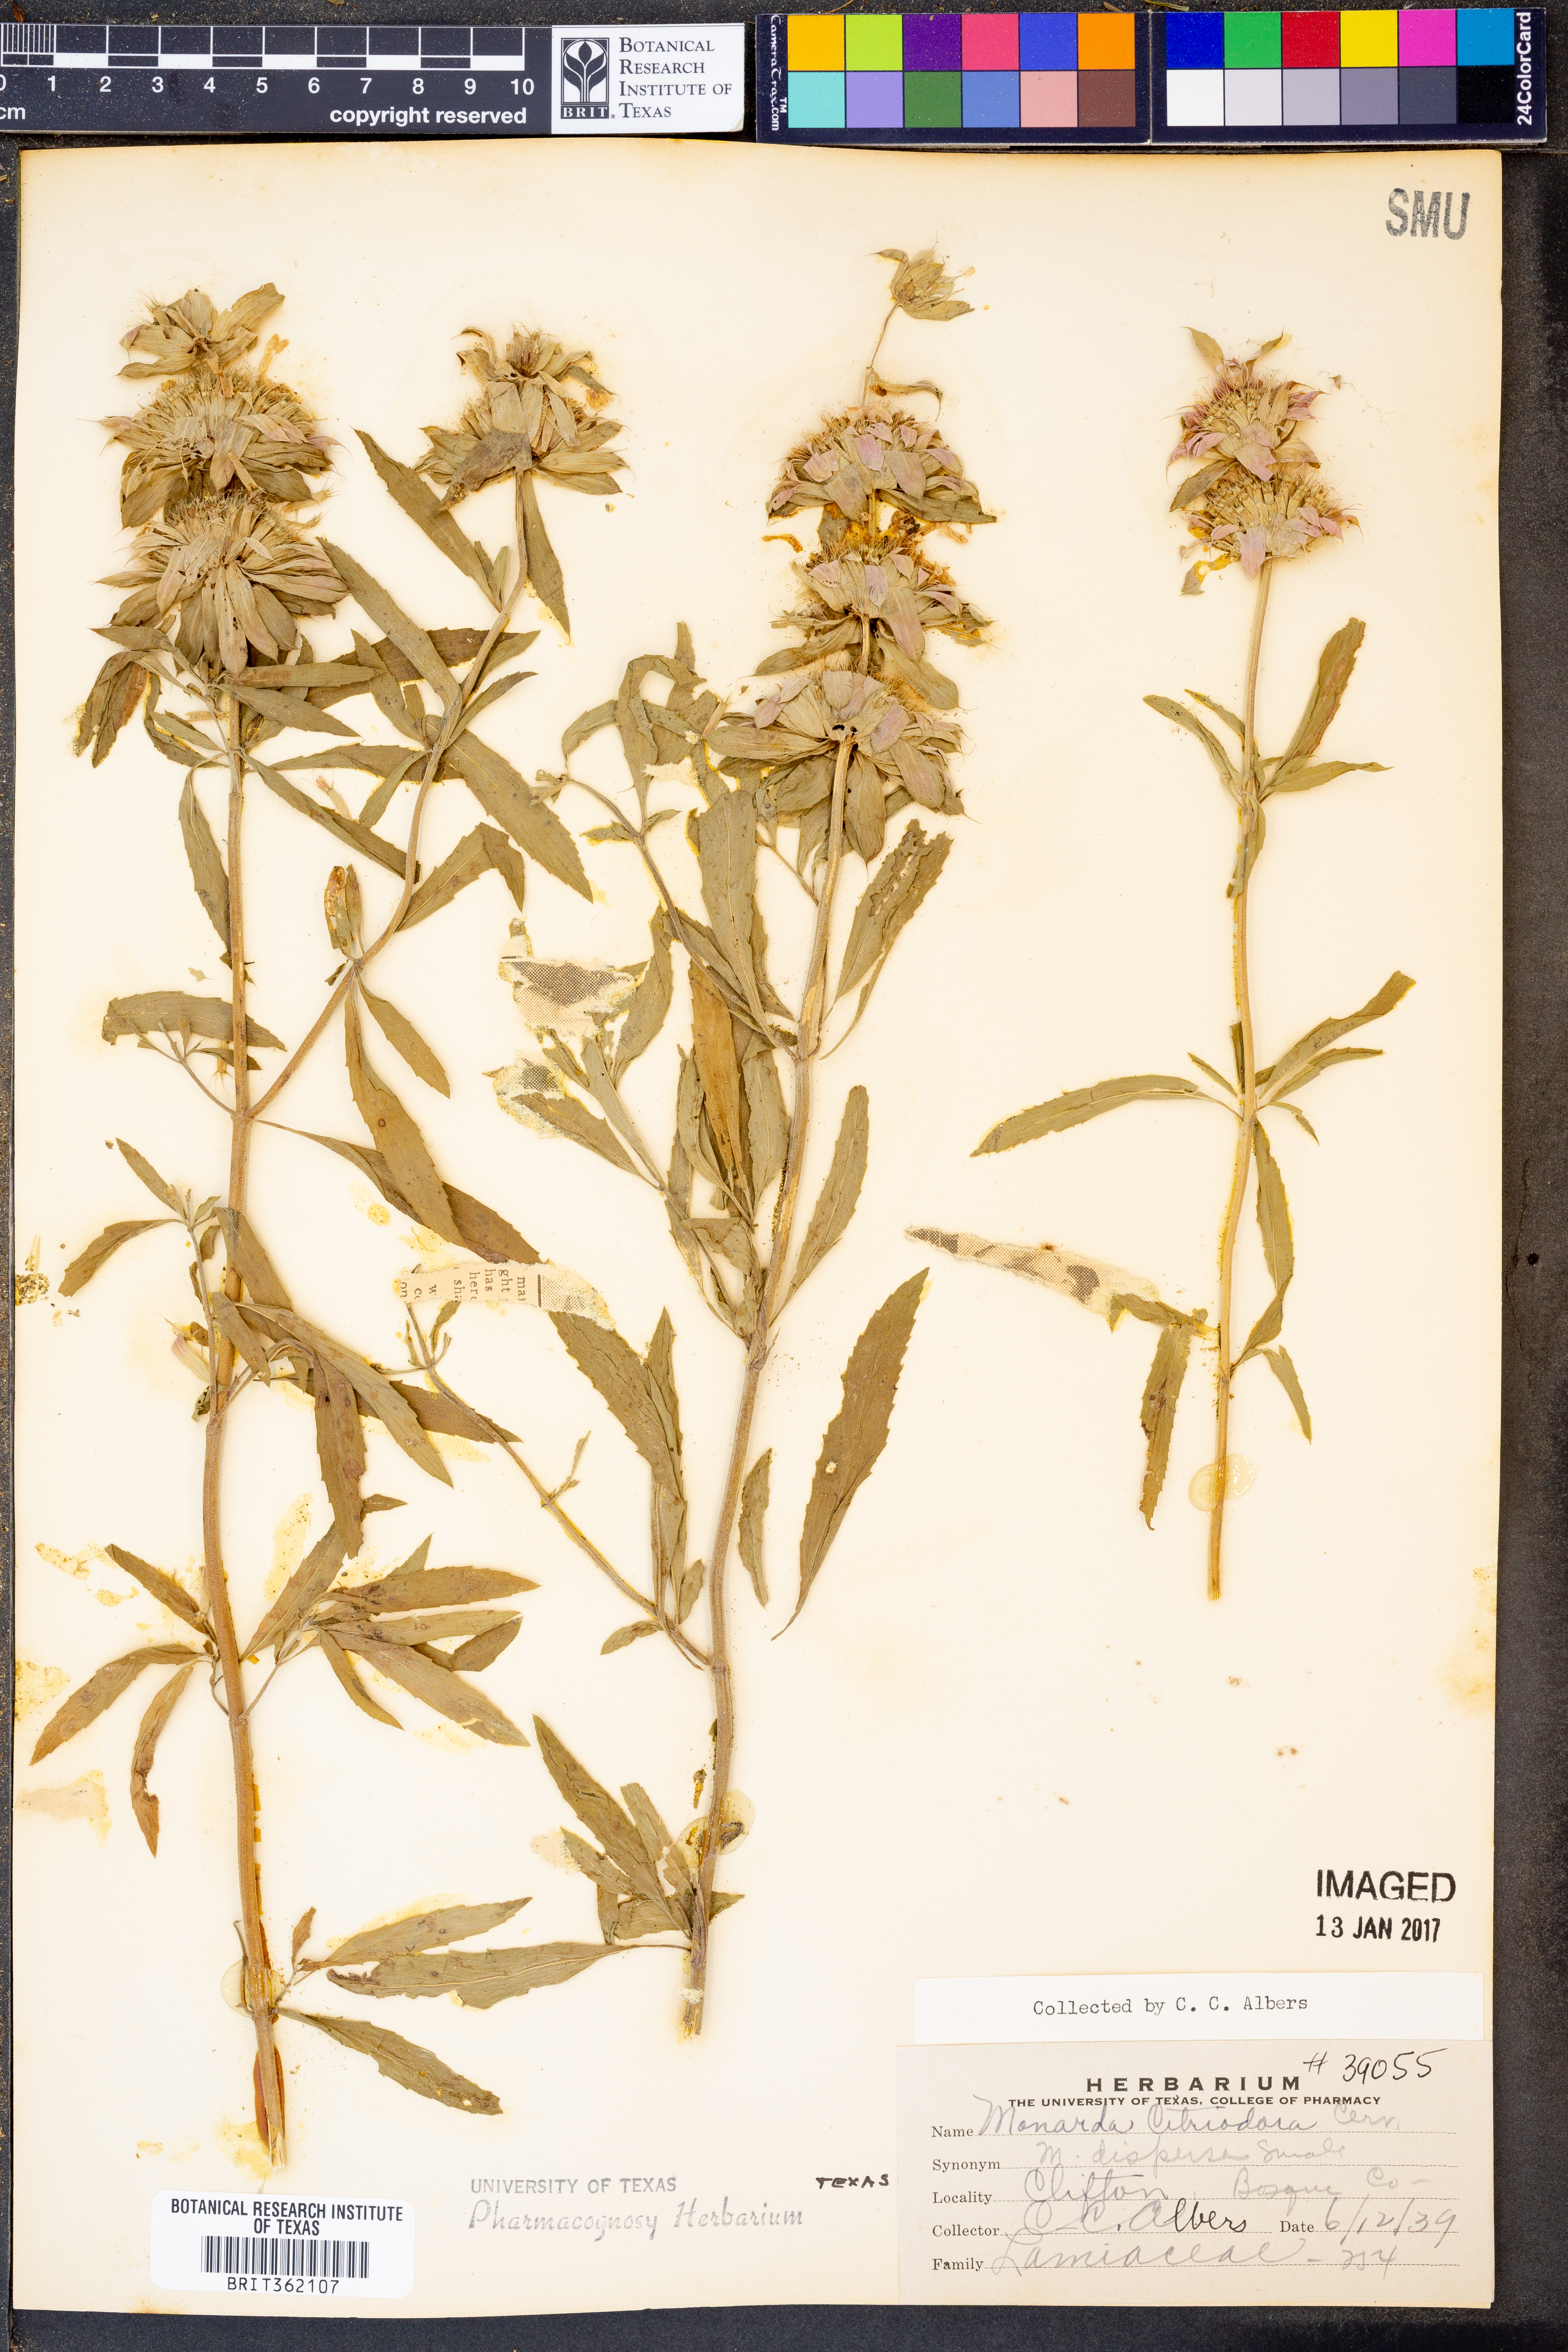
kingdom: Plantae
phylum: Tracheophyta
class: Magnoliopsida
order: Lamiales
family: Lamiaceae
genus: Monarda
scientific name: Monarda citriodora
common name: Lemon beebalm
